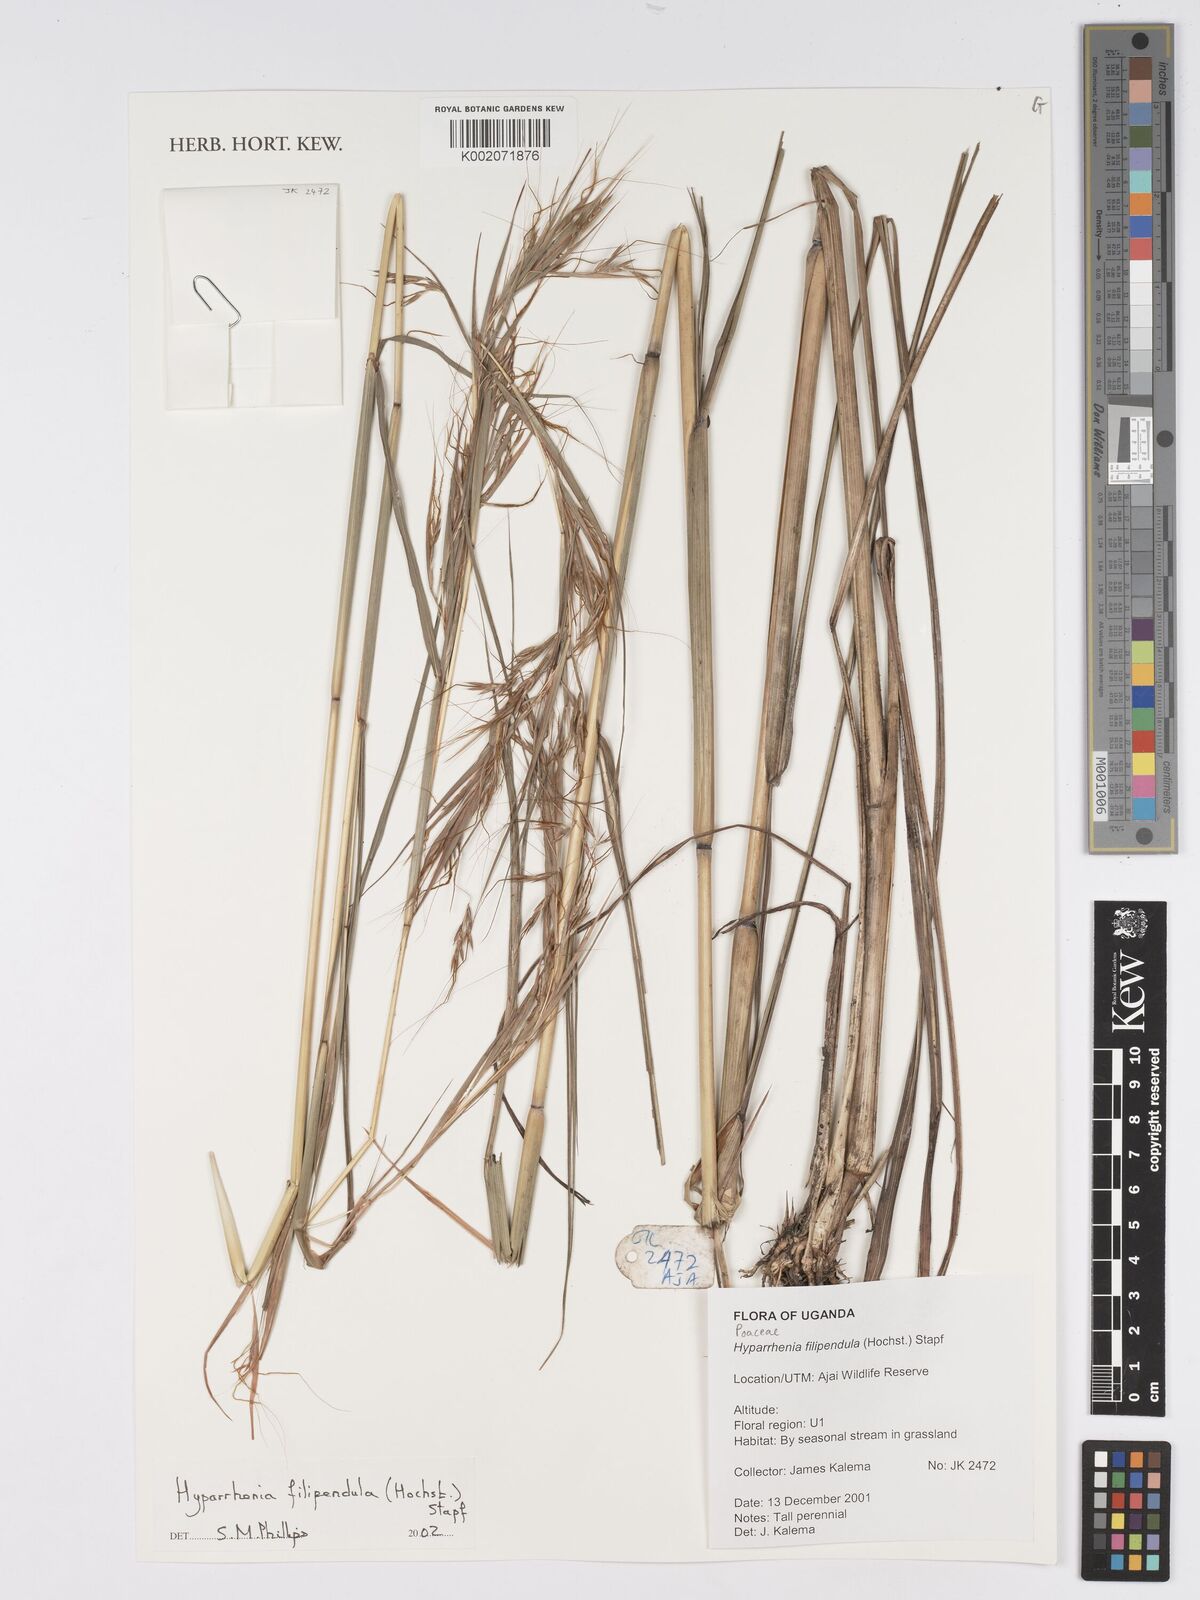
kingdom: Plantae
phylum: Tracheophyta
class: Liliopsida
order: Poales
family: Poaceae
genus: Hyparrhenia
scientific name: Hyparrhenia filipendula
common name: Tambookie grass
